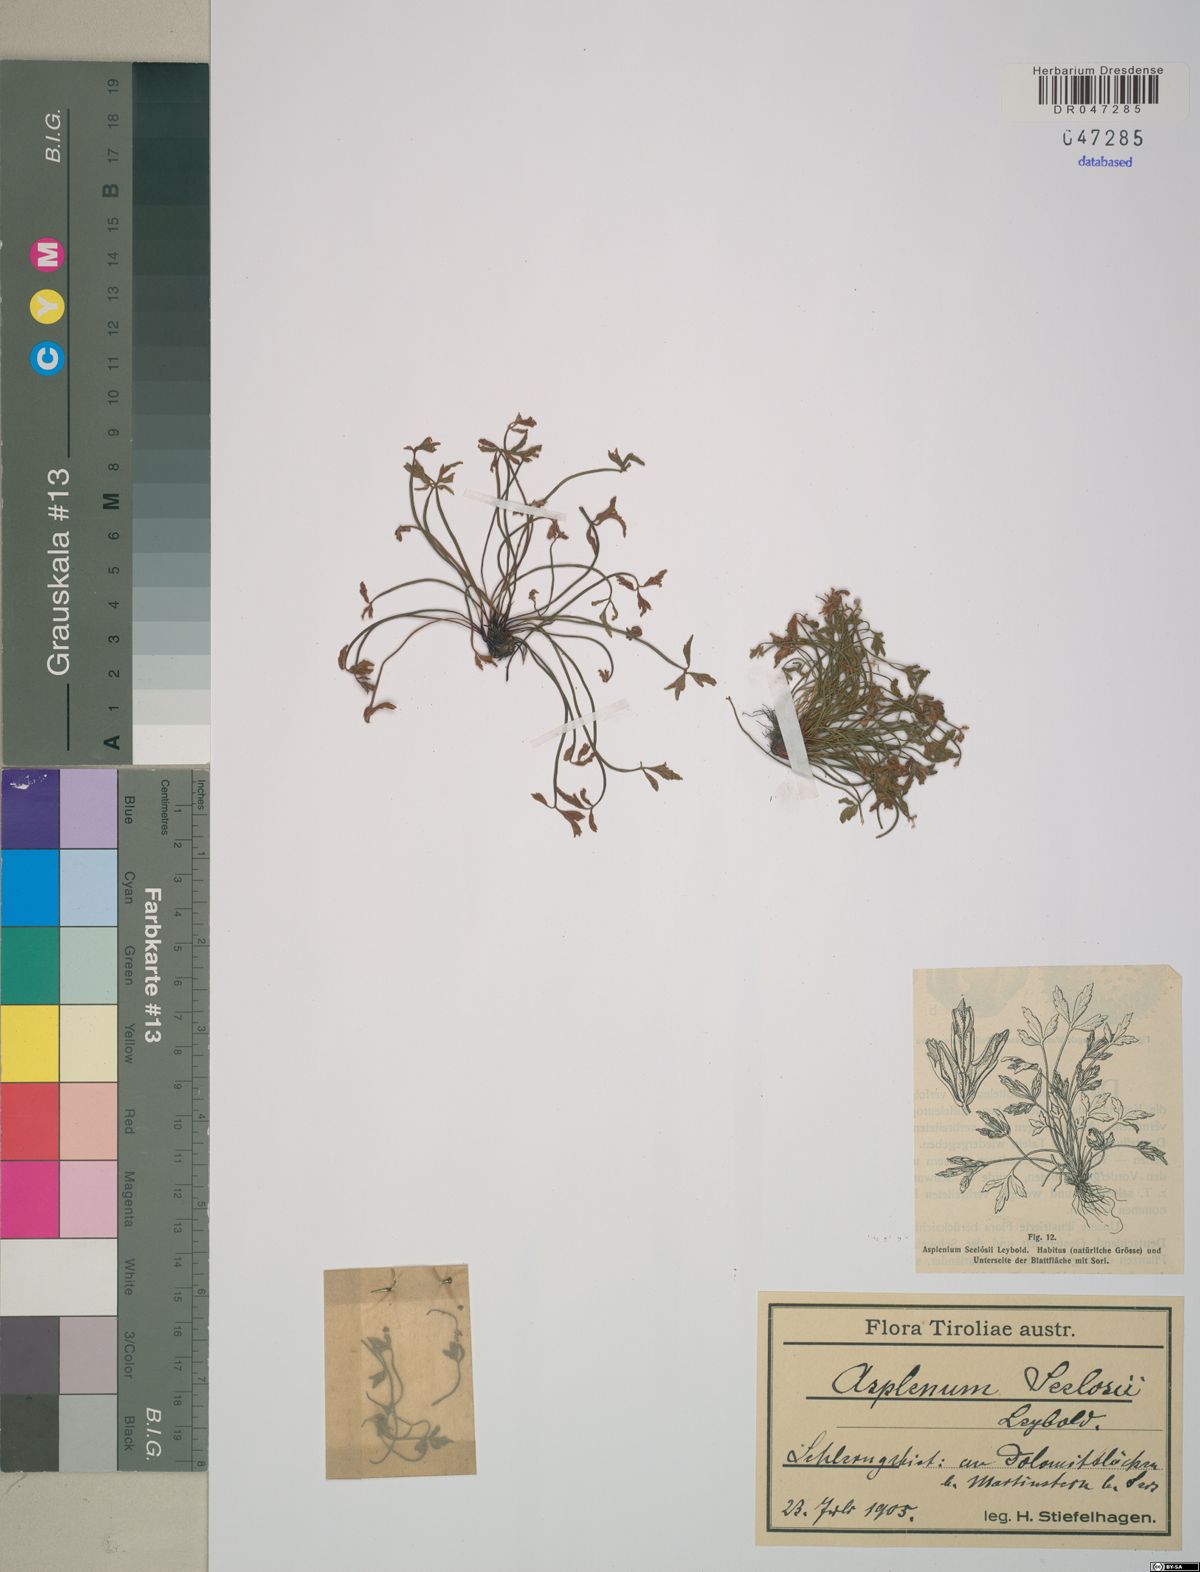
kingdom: Plantae
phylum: Tracheophyta
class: Polypodiopsida
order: Polypodiales
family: Aspleniaceae
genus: Asplenium
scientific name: Asplenium seelosii
